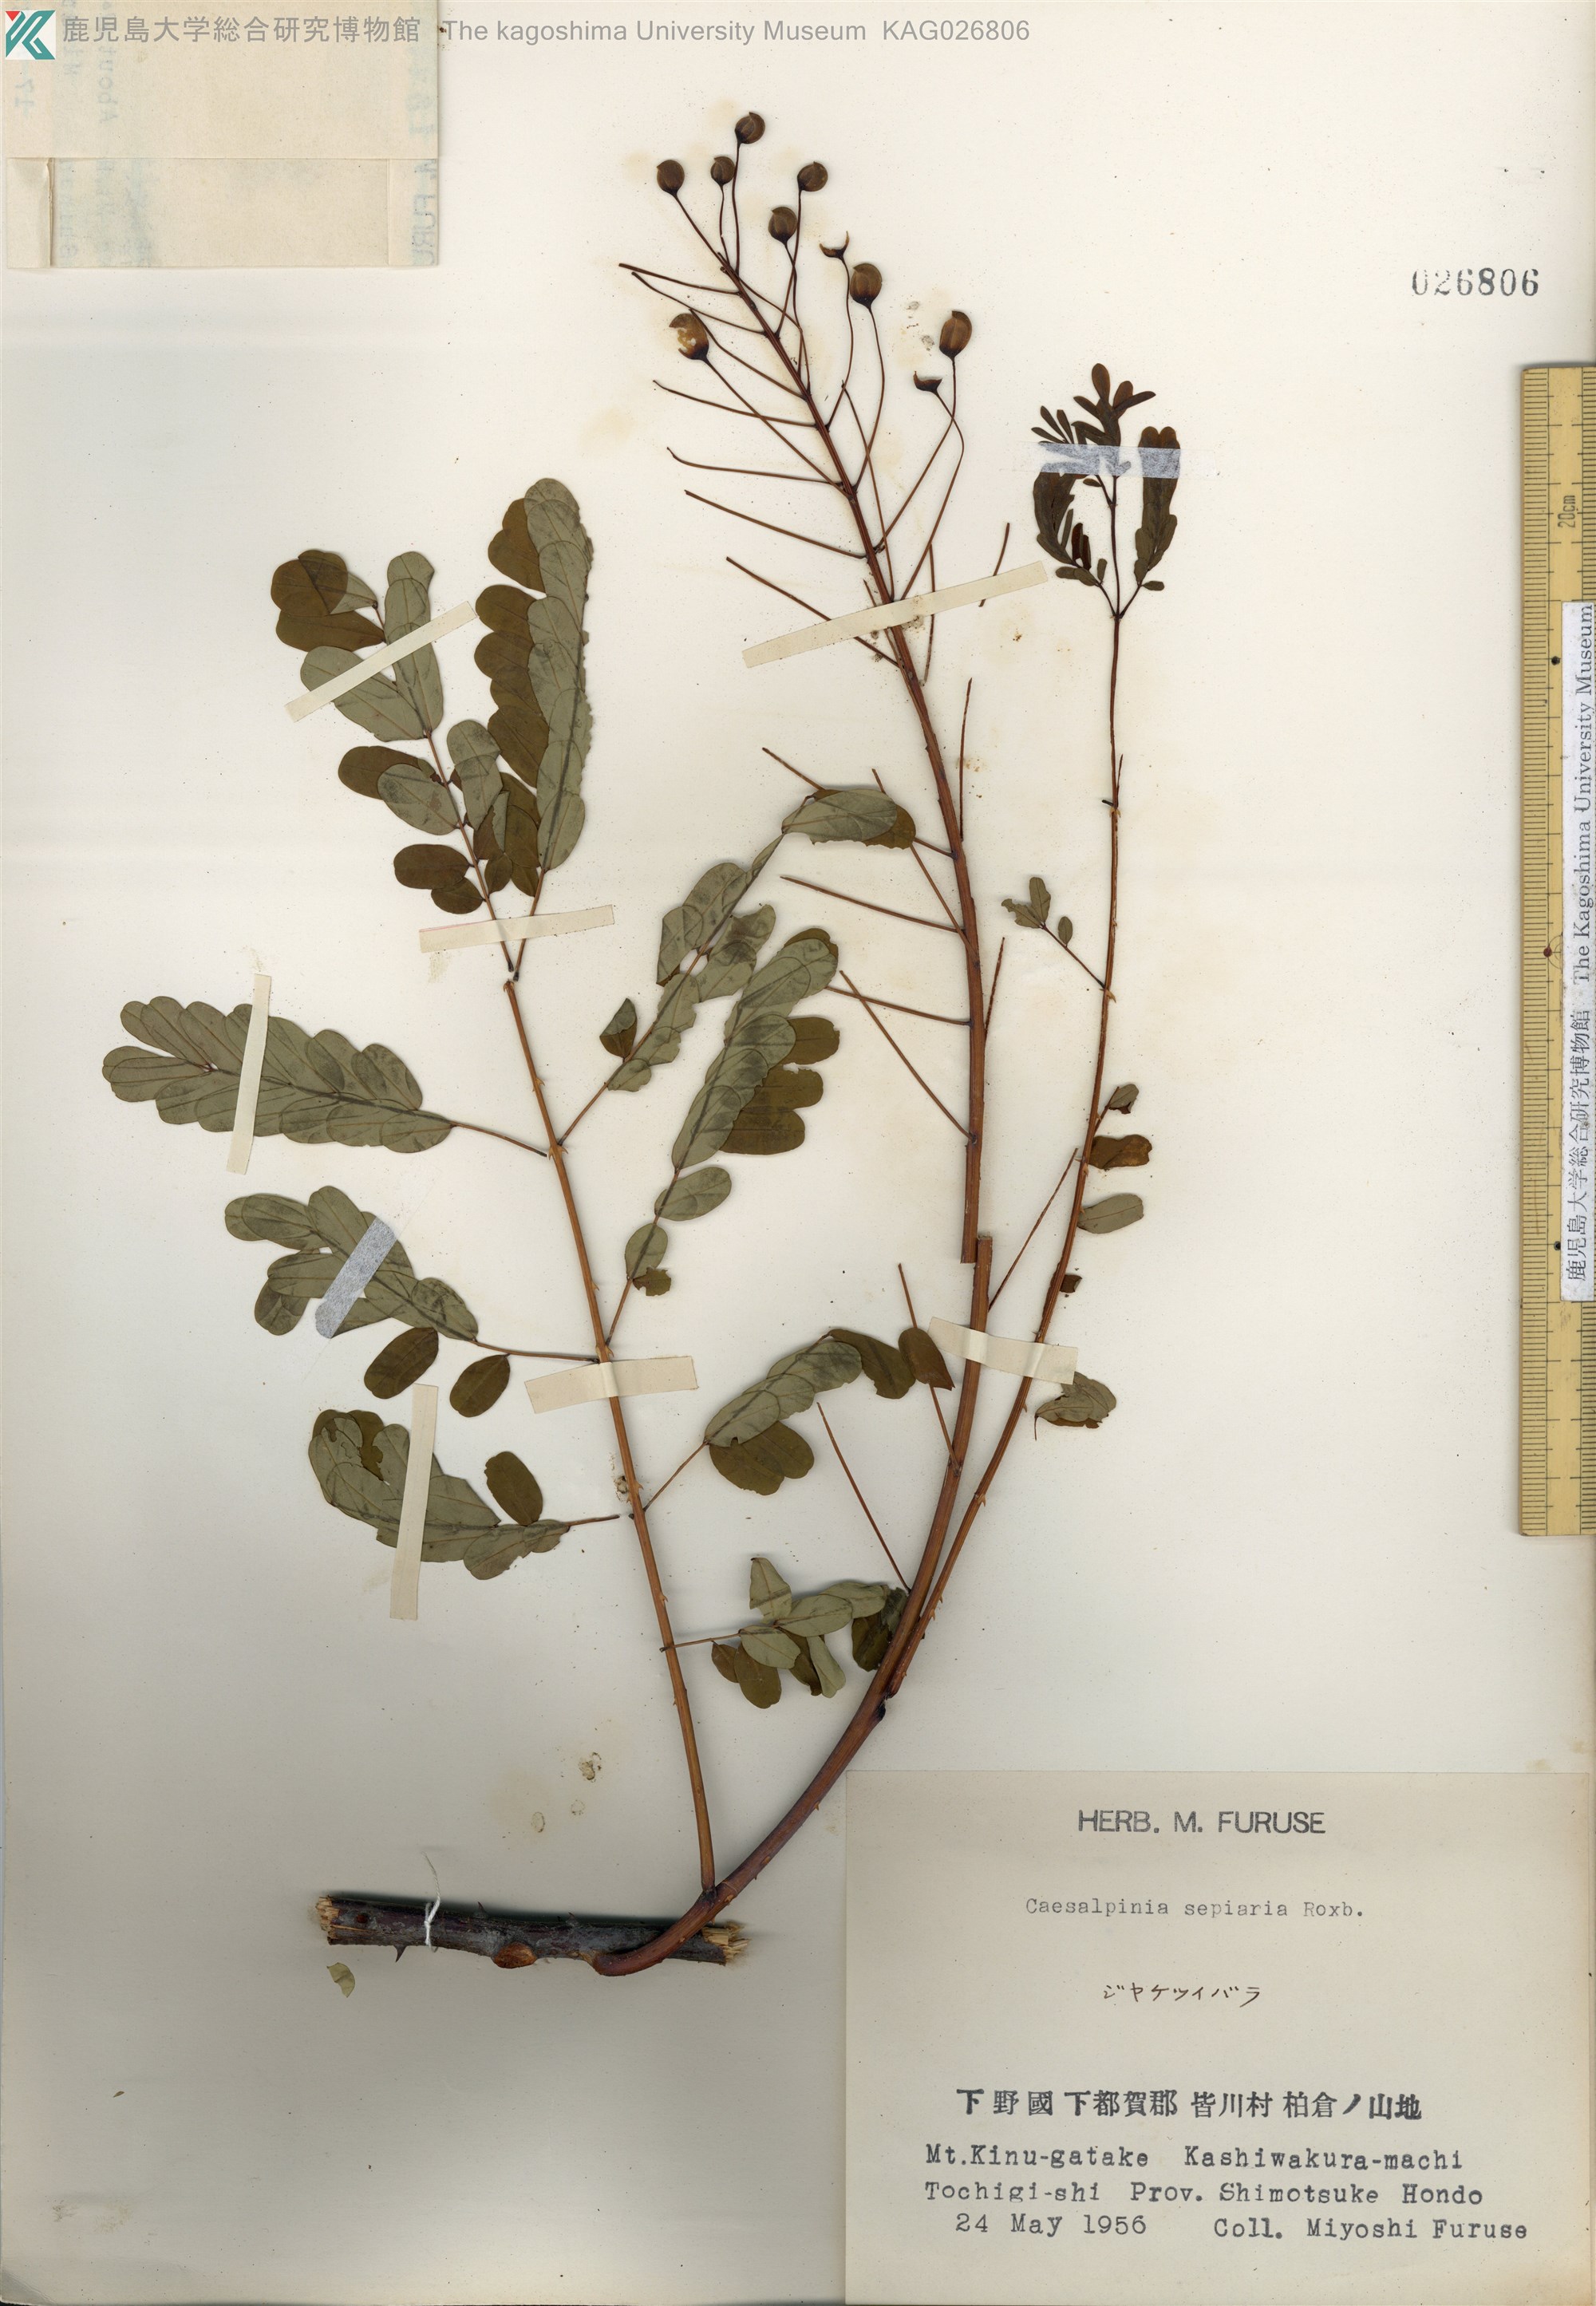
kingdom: Plantae
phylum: Tracheophyta
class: Magnoliopsida
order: Fabales
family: Fabaceae
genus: Biancaea
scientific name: Biancaea decapetala
